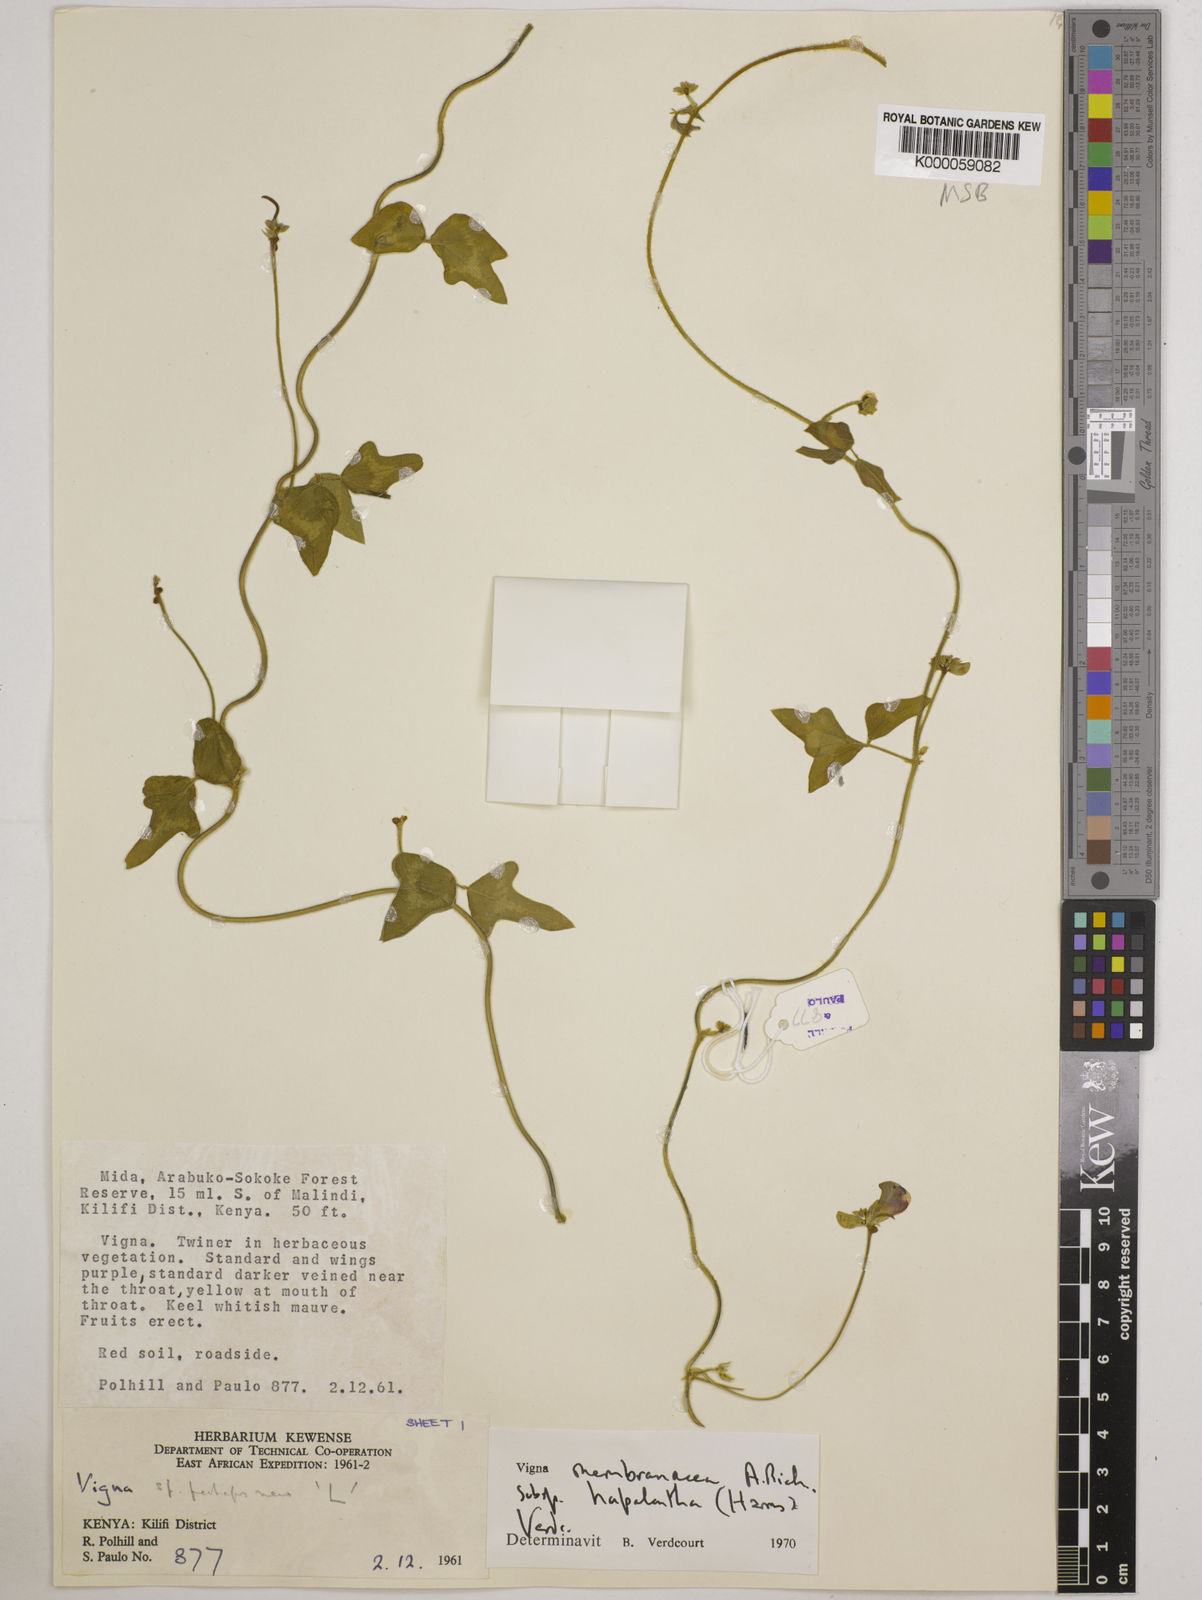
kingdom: Plantae
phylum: Tracheophyta
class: Magnoliopsida
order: Fabales
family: Fabaceae
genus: Vigna
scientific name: Vigna
